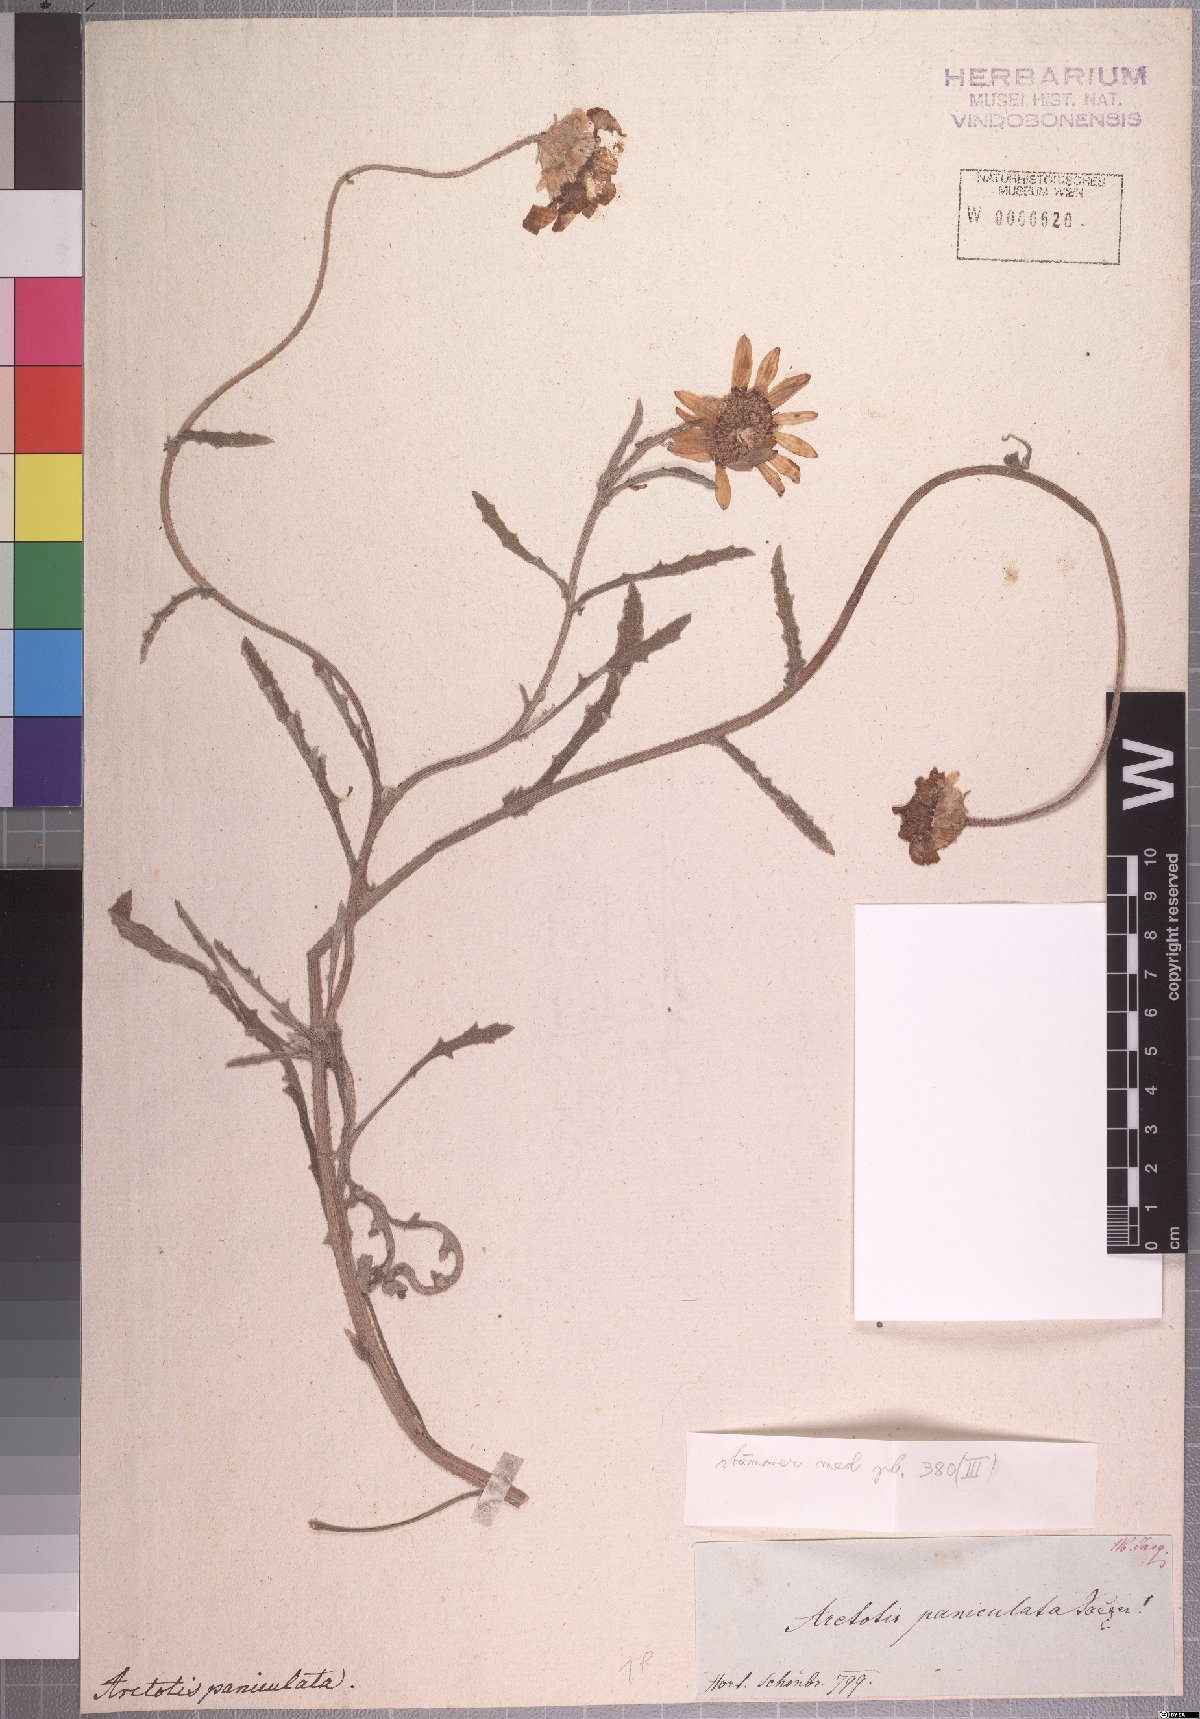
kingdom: Plantae
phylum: Tracheophyta
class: Magnoliopsida
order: Asterales
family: Asteraceae
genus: Arctotis
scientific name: Arctotis paniculata
